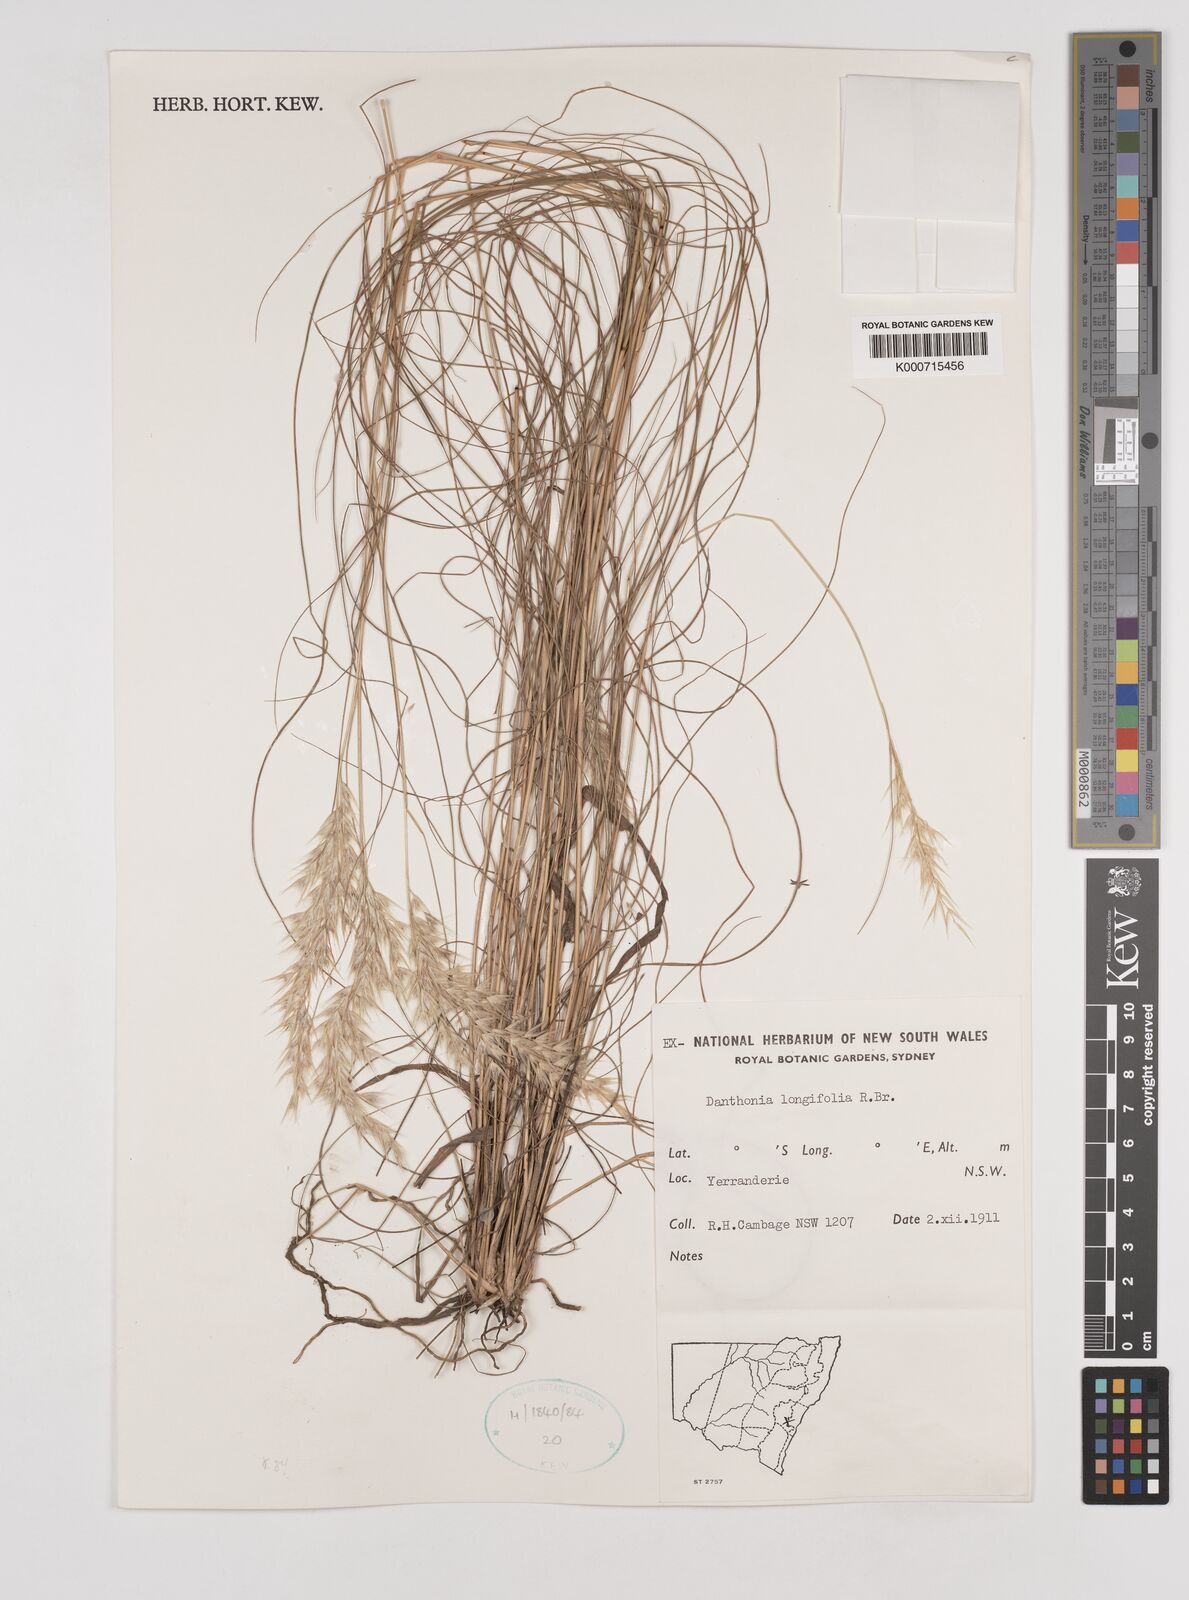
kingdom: Plantae
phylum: Tracheophyta
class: Liliopsida
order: Poales
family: Poaceae
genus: Rytidosperma
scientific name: Rytidosperma longifolium
